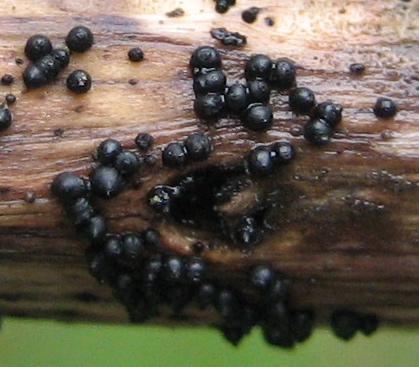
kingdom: Fungi
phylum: Ascomycota
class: Dothideomycetes
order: Pleosporales
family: Leptosphaeriaceae
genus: Leptosphaeria
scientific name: Leptosphaeria
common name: kulkegle
